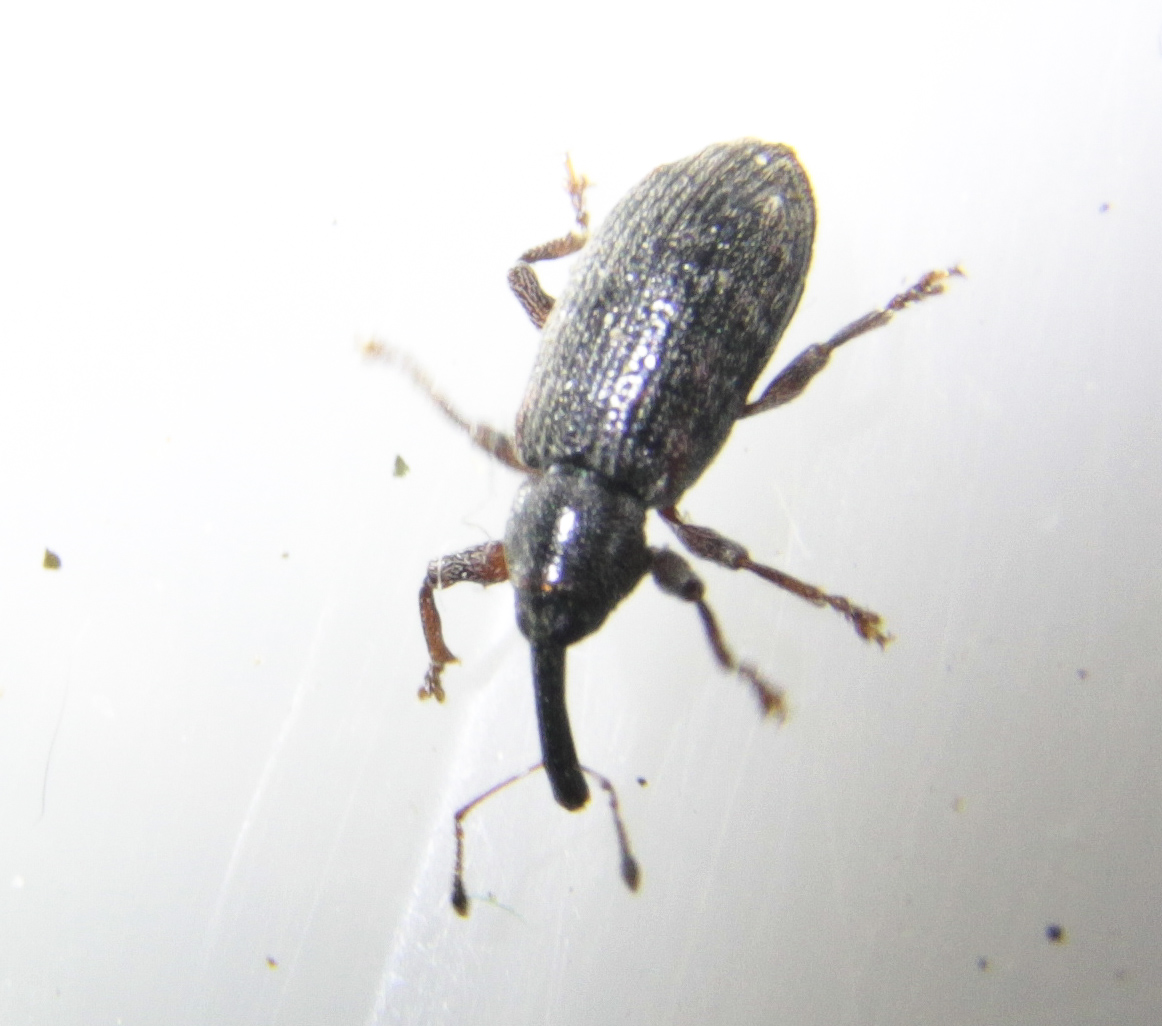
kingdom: Animalia
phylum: Arthropoda
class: Insecta
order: Coleoptera
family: Curculionidae
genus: Dorytomus
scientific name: Dorytomus
